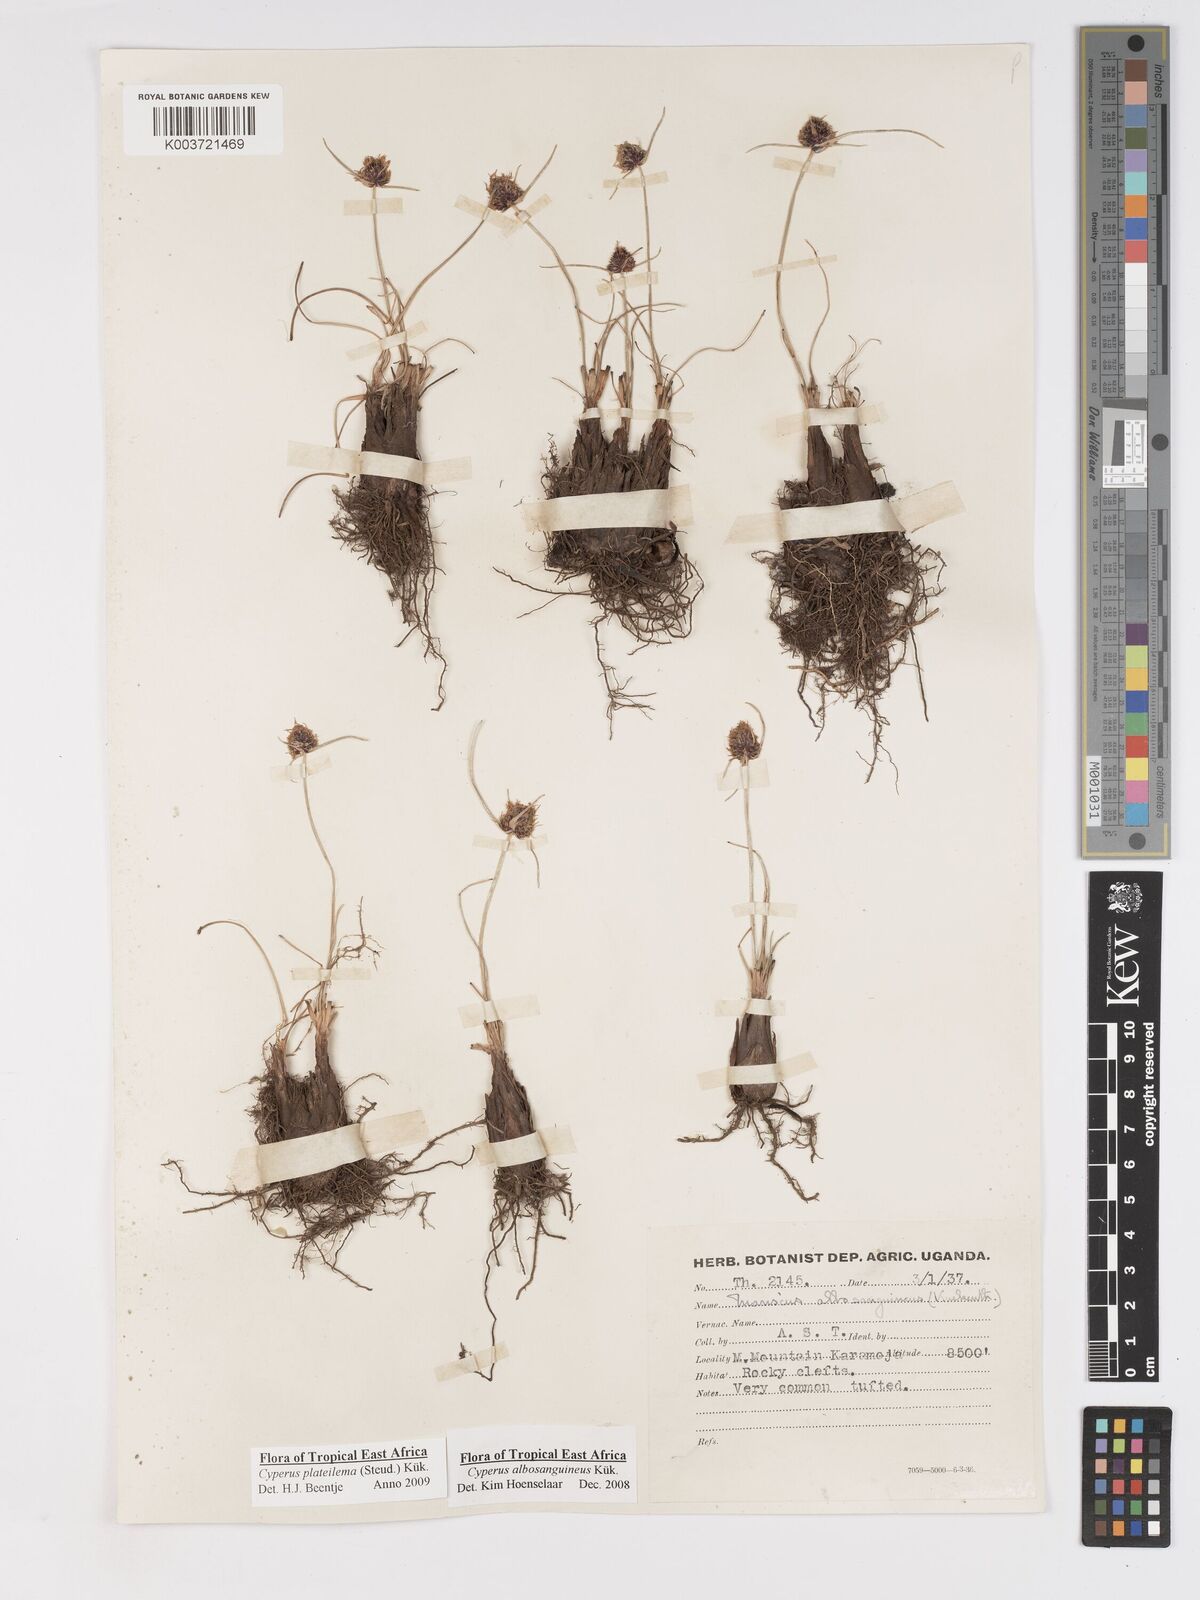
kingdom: Plantae
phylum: Tracheophyta
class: Liliopsida
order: Poales
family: Cyperaceae
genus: Cyperus
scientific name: Cyperus plateilema
